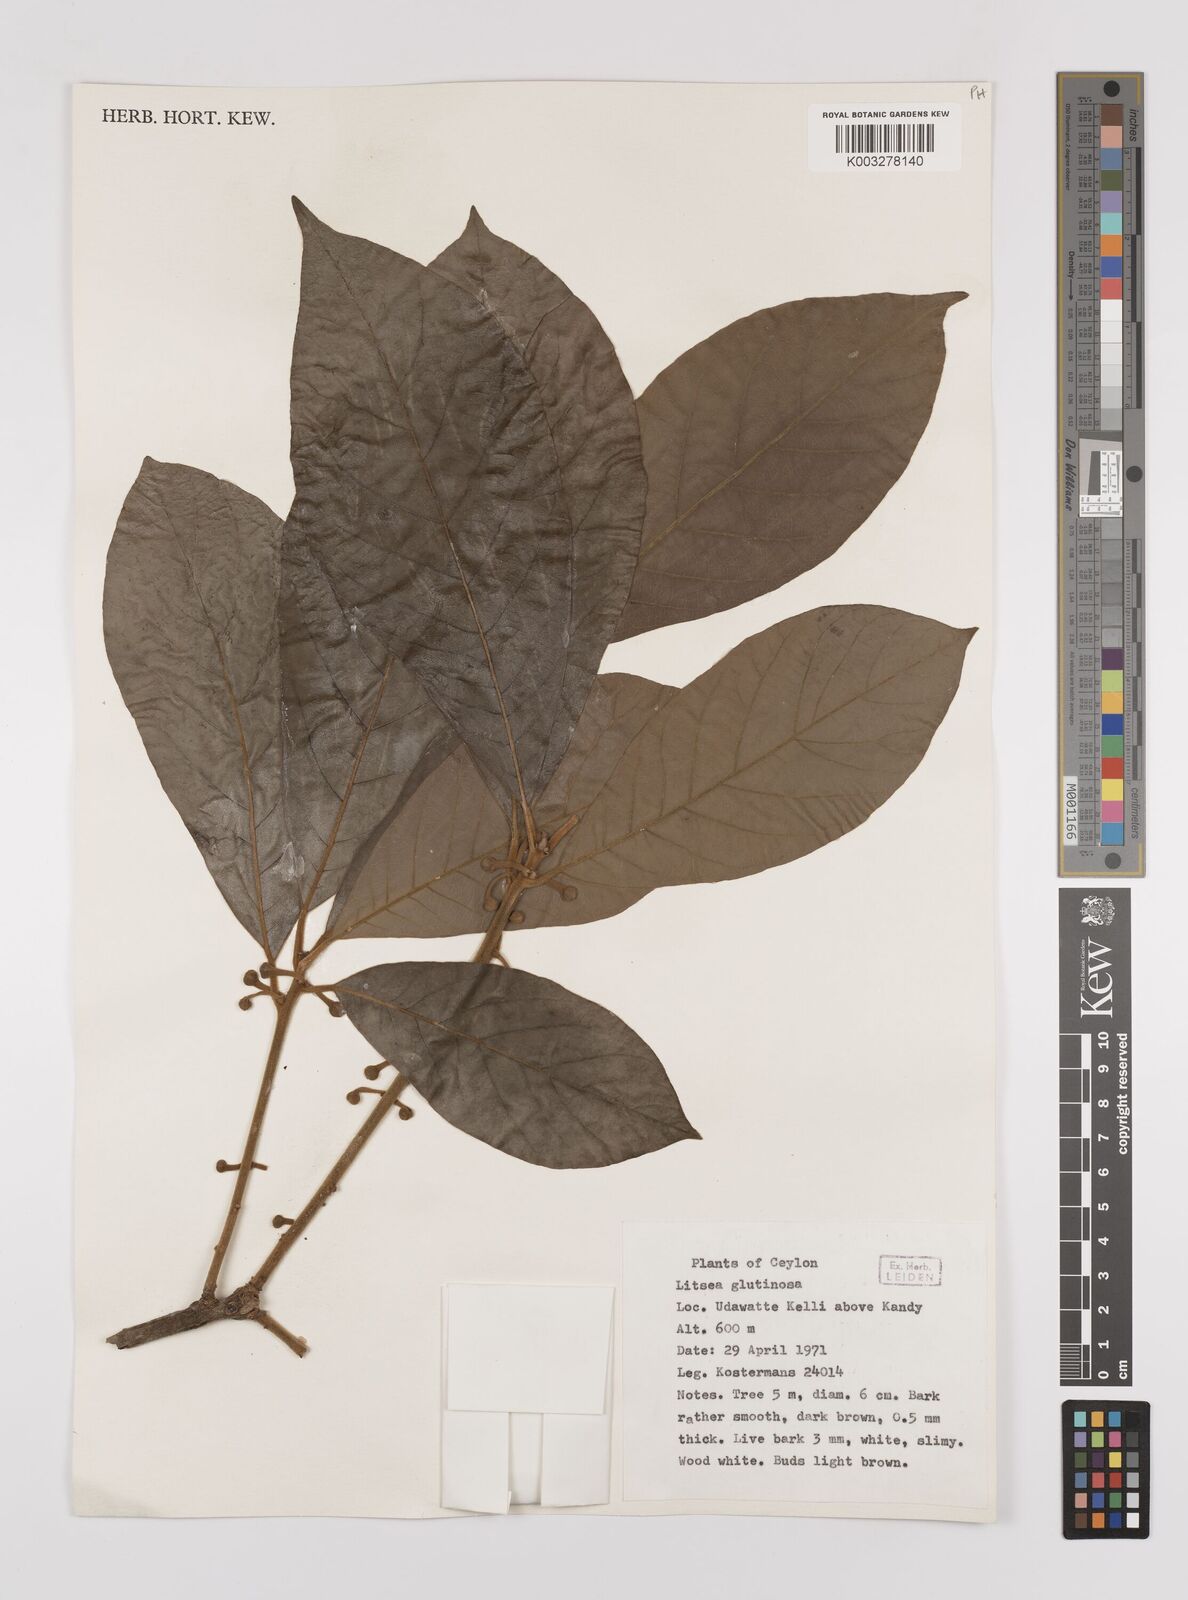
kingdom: Plantae
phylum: Tracheophyta
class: Magnoliopsida
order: Laurales
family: Lauraceae
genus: Litsea
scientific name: Litsea
